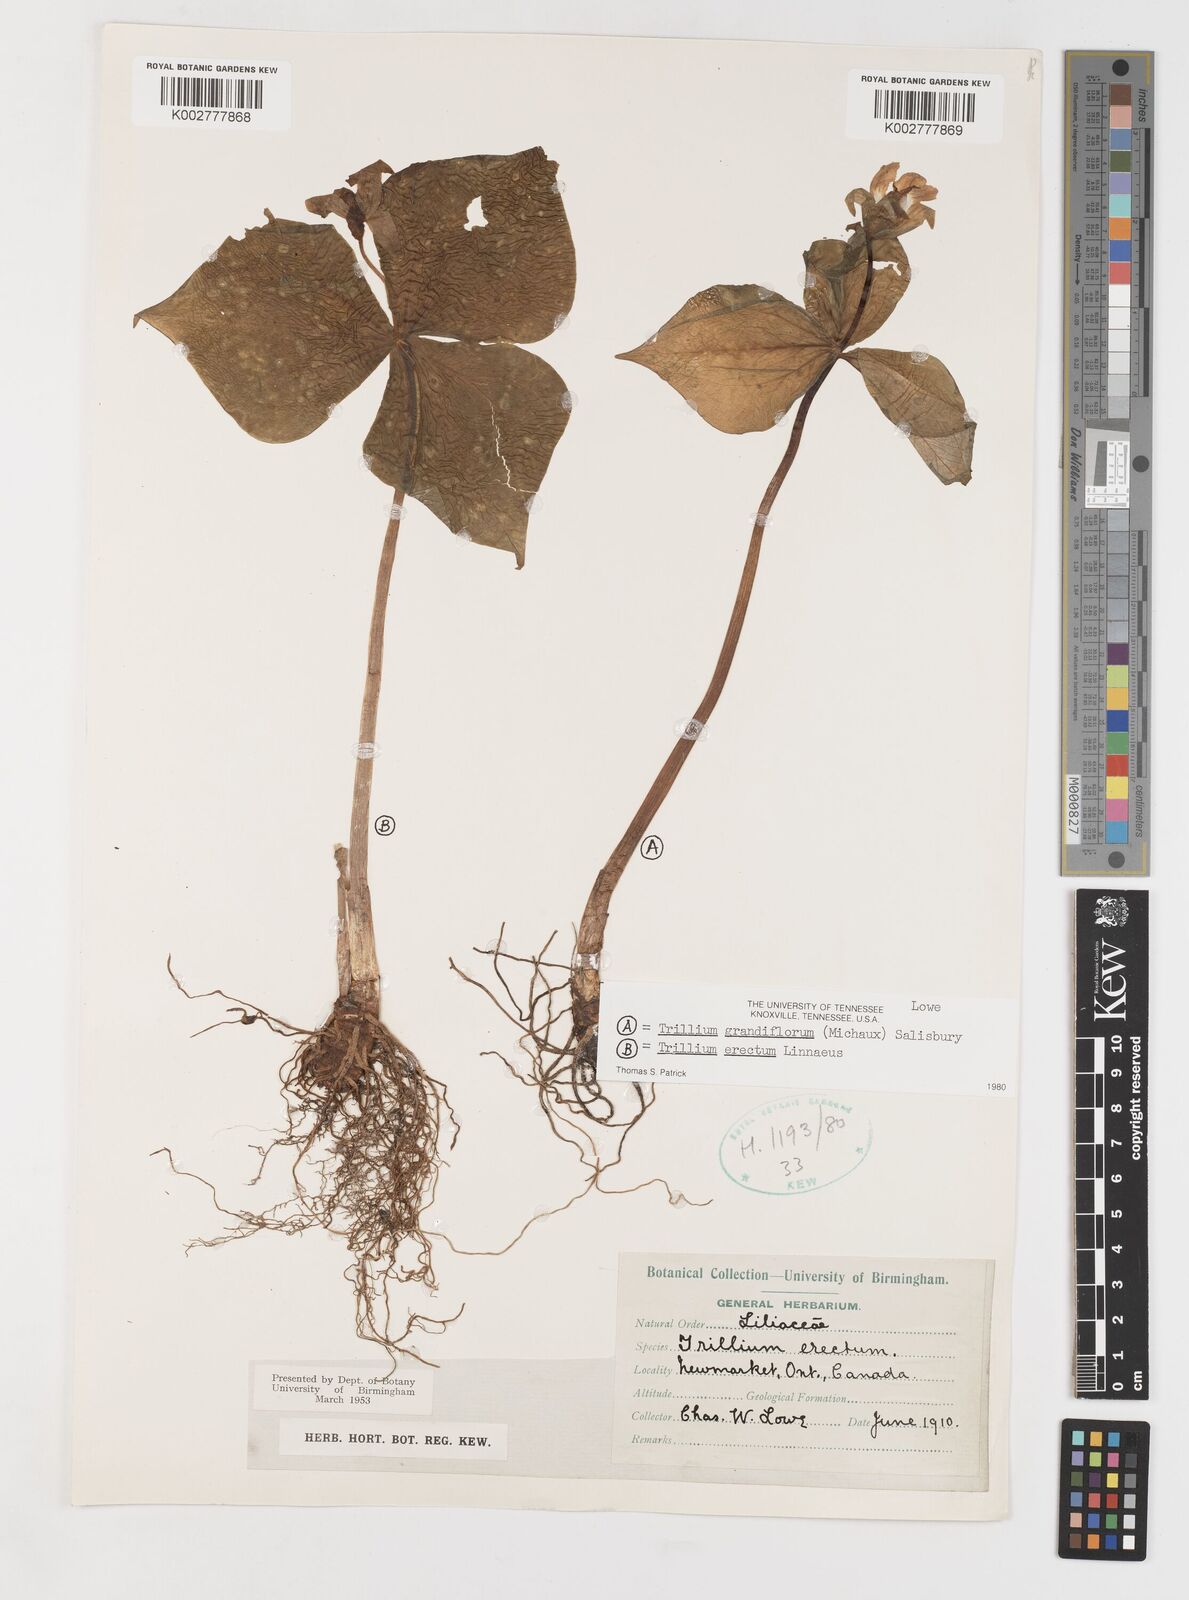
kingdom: Plantae
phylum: Tracheophyta
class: Liliopsida
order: Liliales
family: Melanthiaceae
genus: Trillium
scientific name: Trillium erectum
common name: Purple trillium
